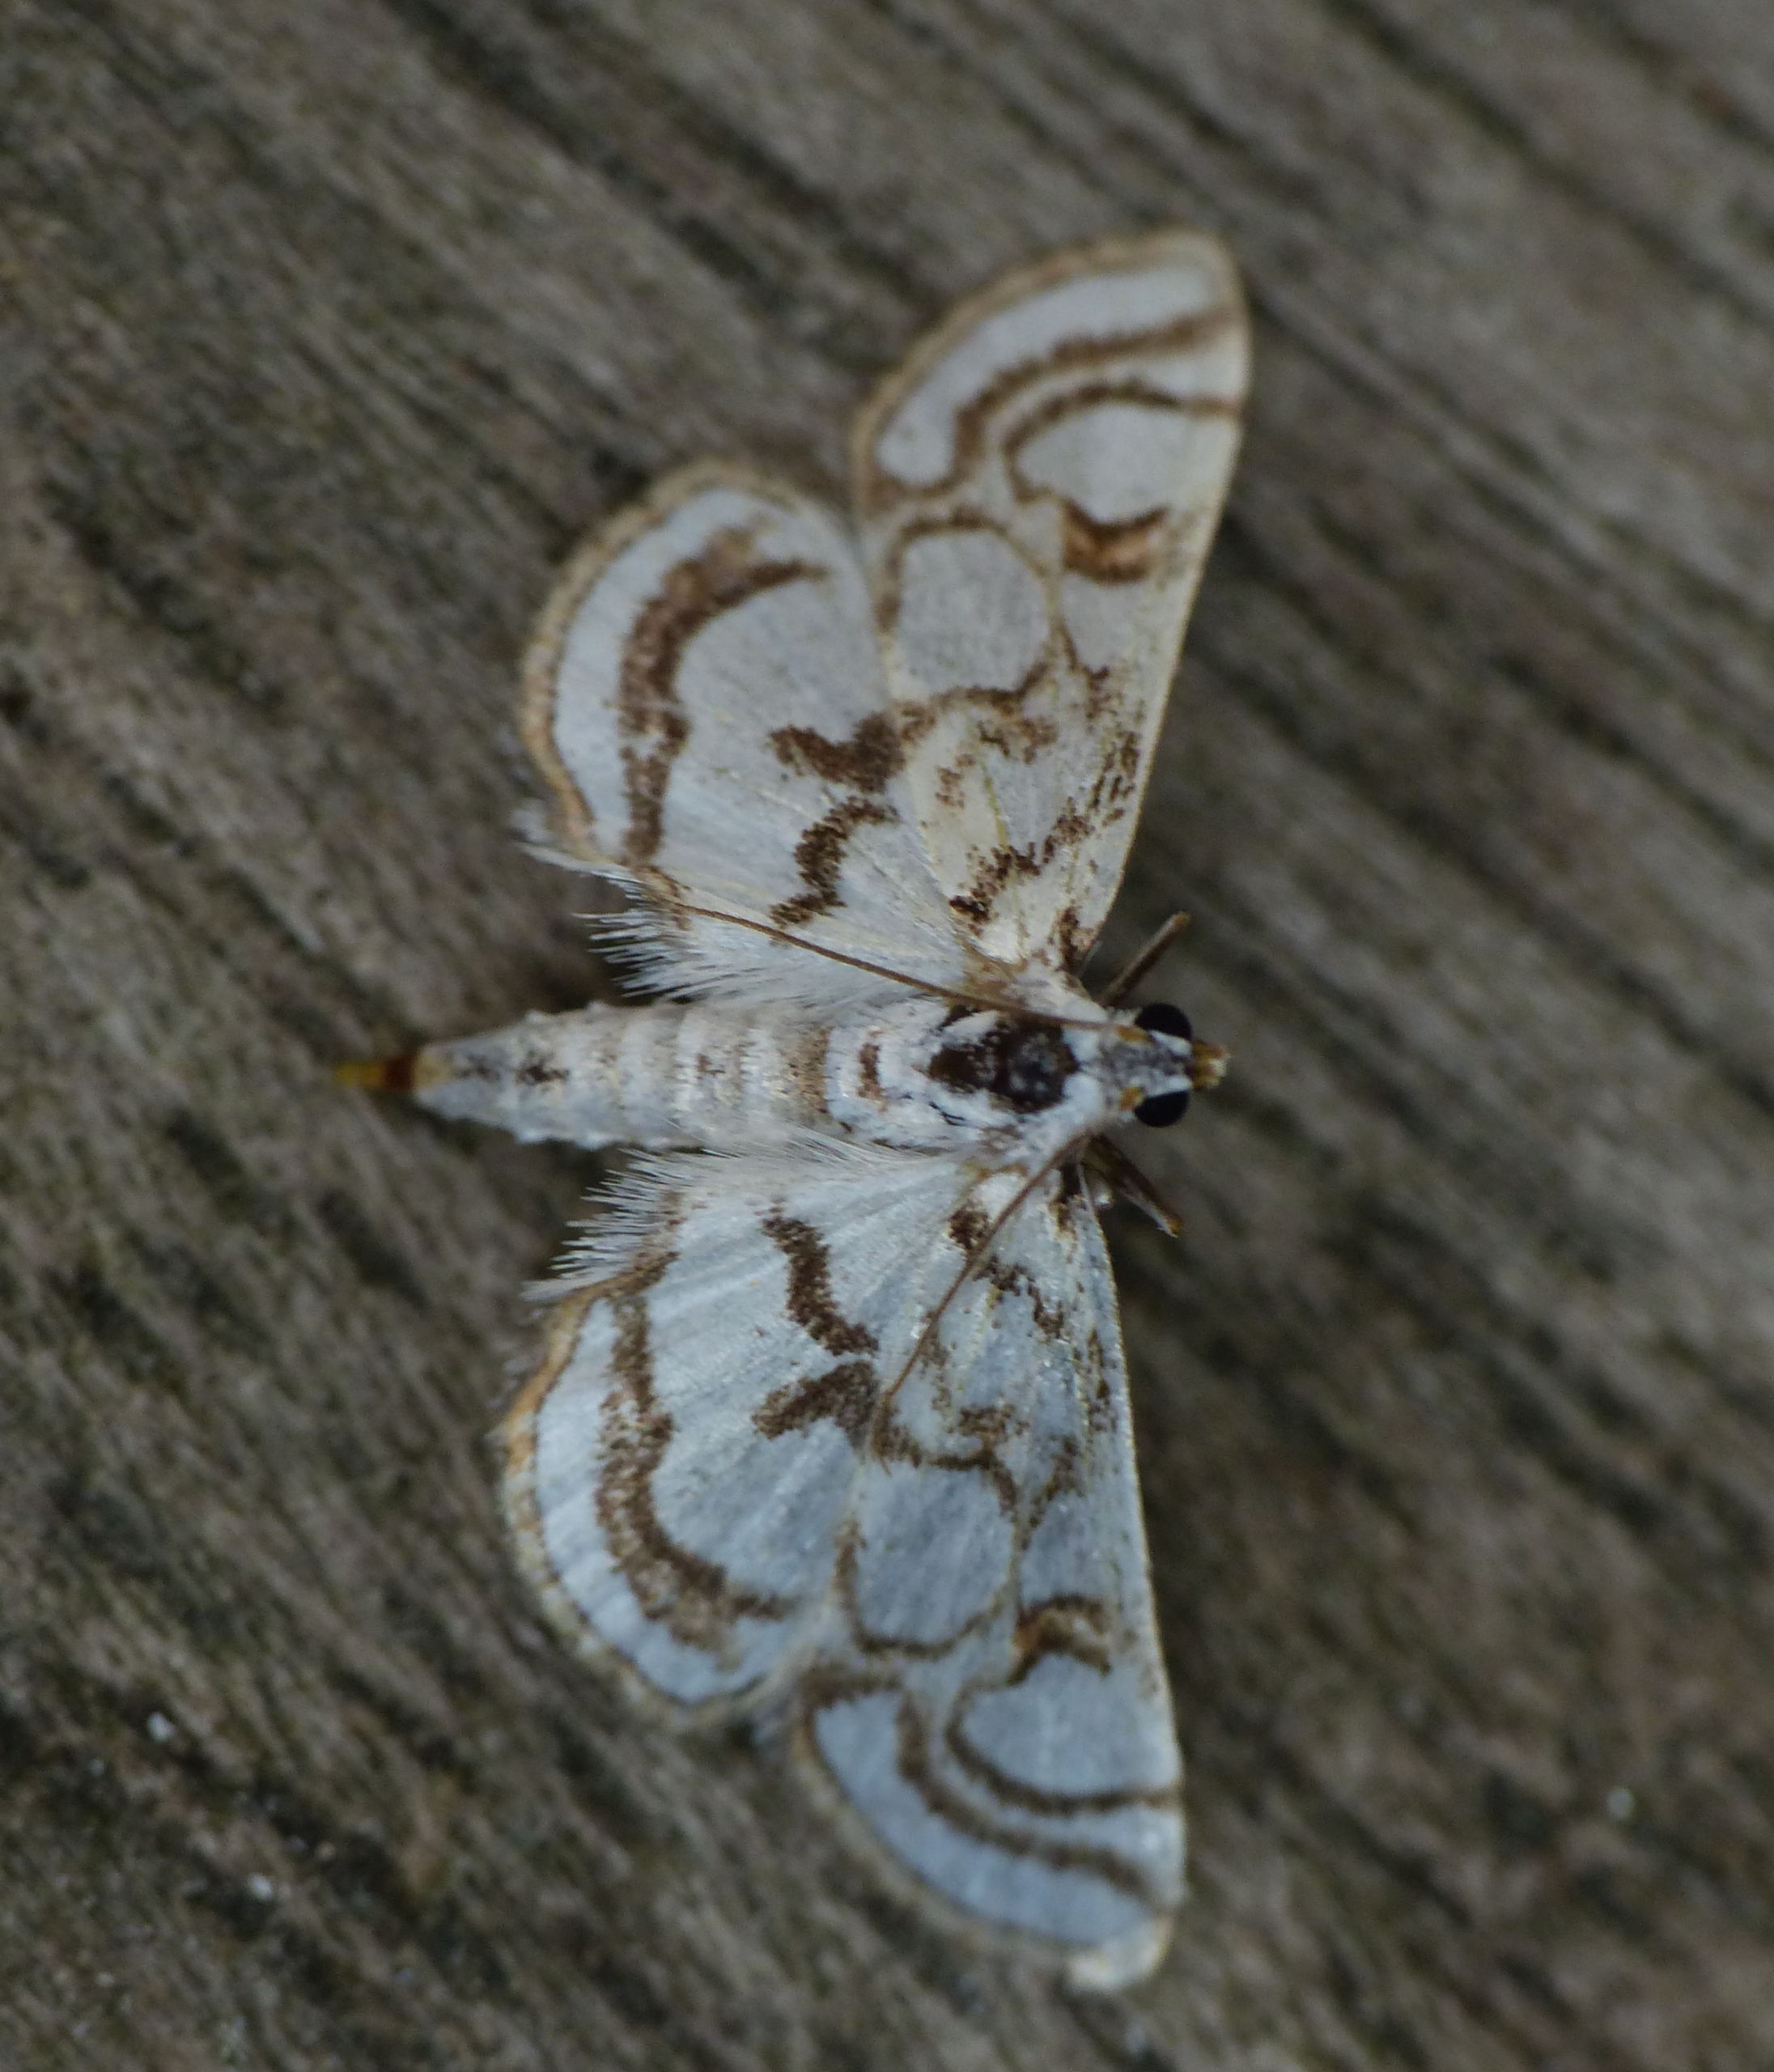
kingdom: Animalia
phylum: Arthropoda
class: Insecta
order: Lepidoptera
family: Crambidae
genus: Nymphula
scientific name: Nymphula nitidulata
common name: Lille porcelænsmøl
